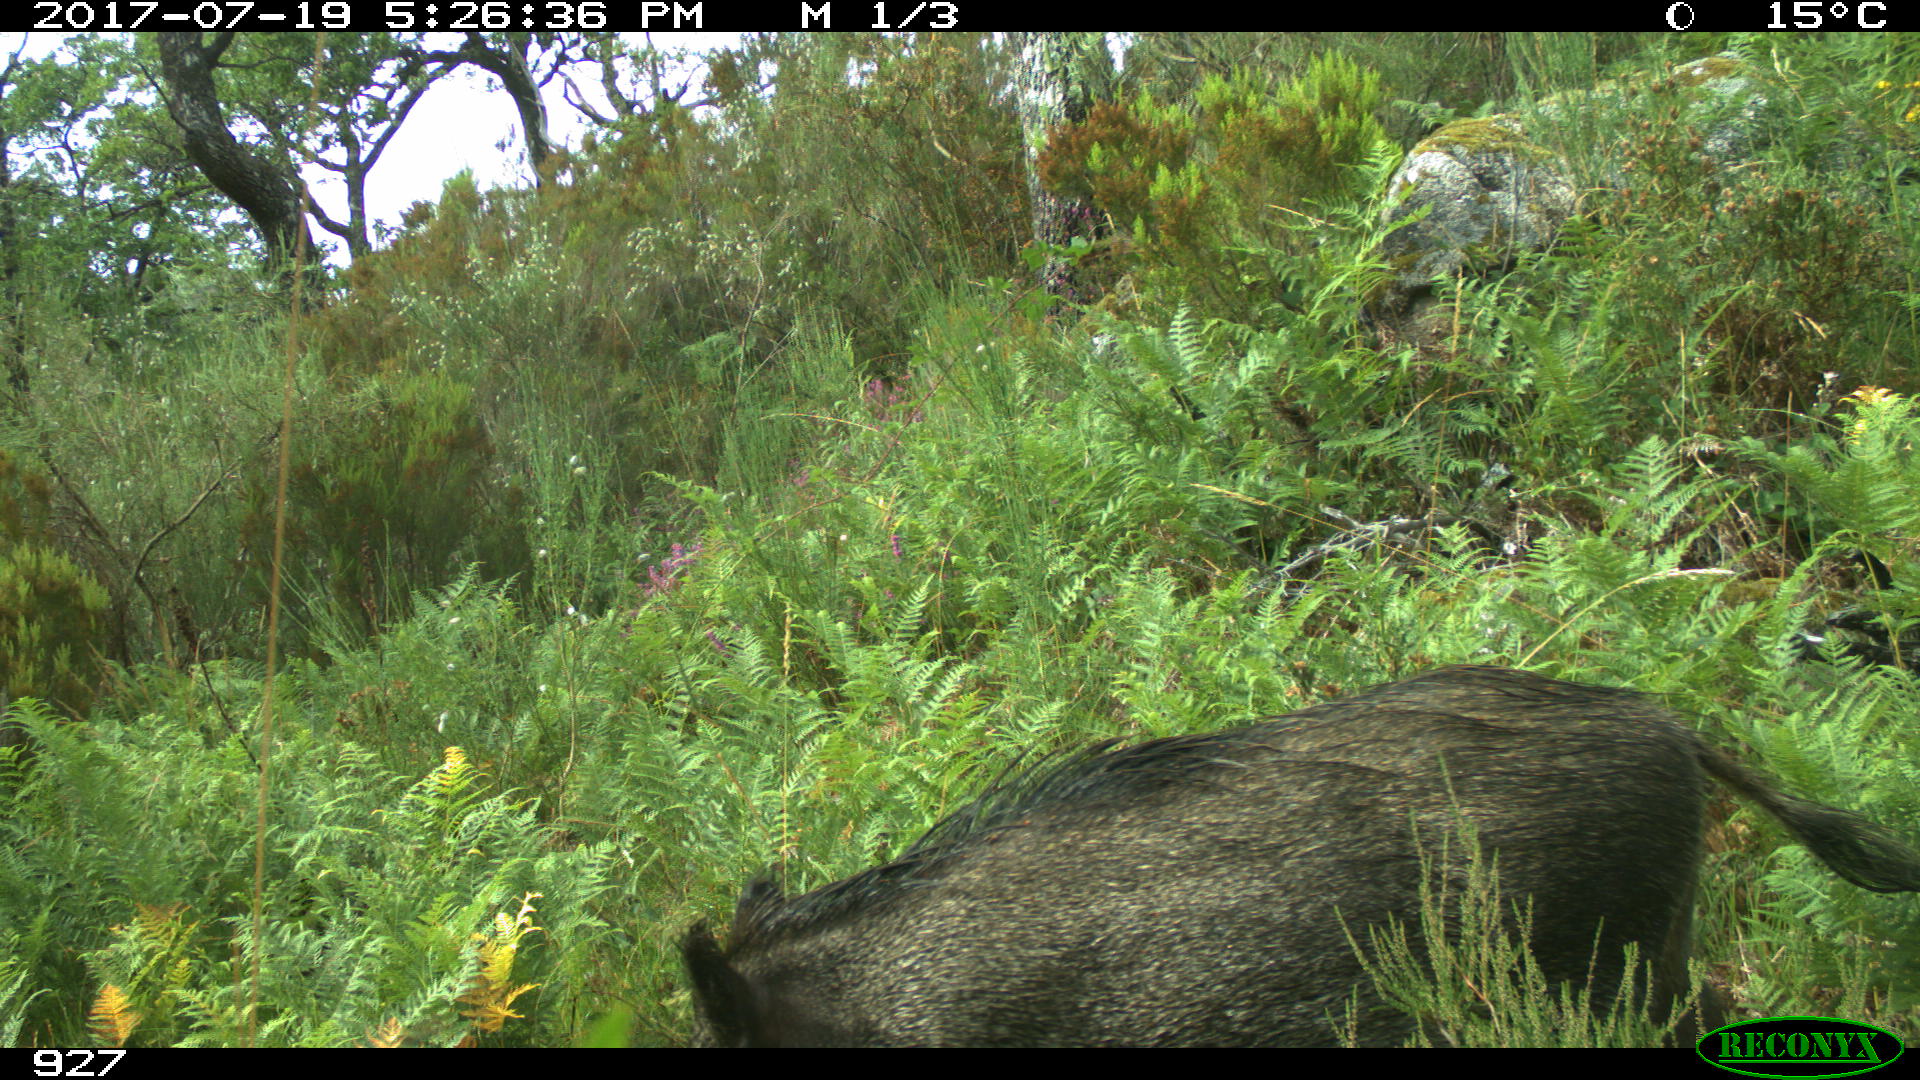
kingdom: Animalia
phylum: Chordata
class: Mammalia
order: Artiodactyla
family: Suidae
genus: Sus
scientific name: Sus scrofa
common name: Wild boar
